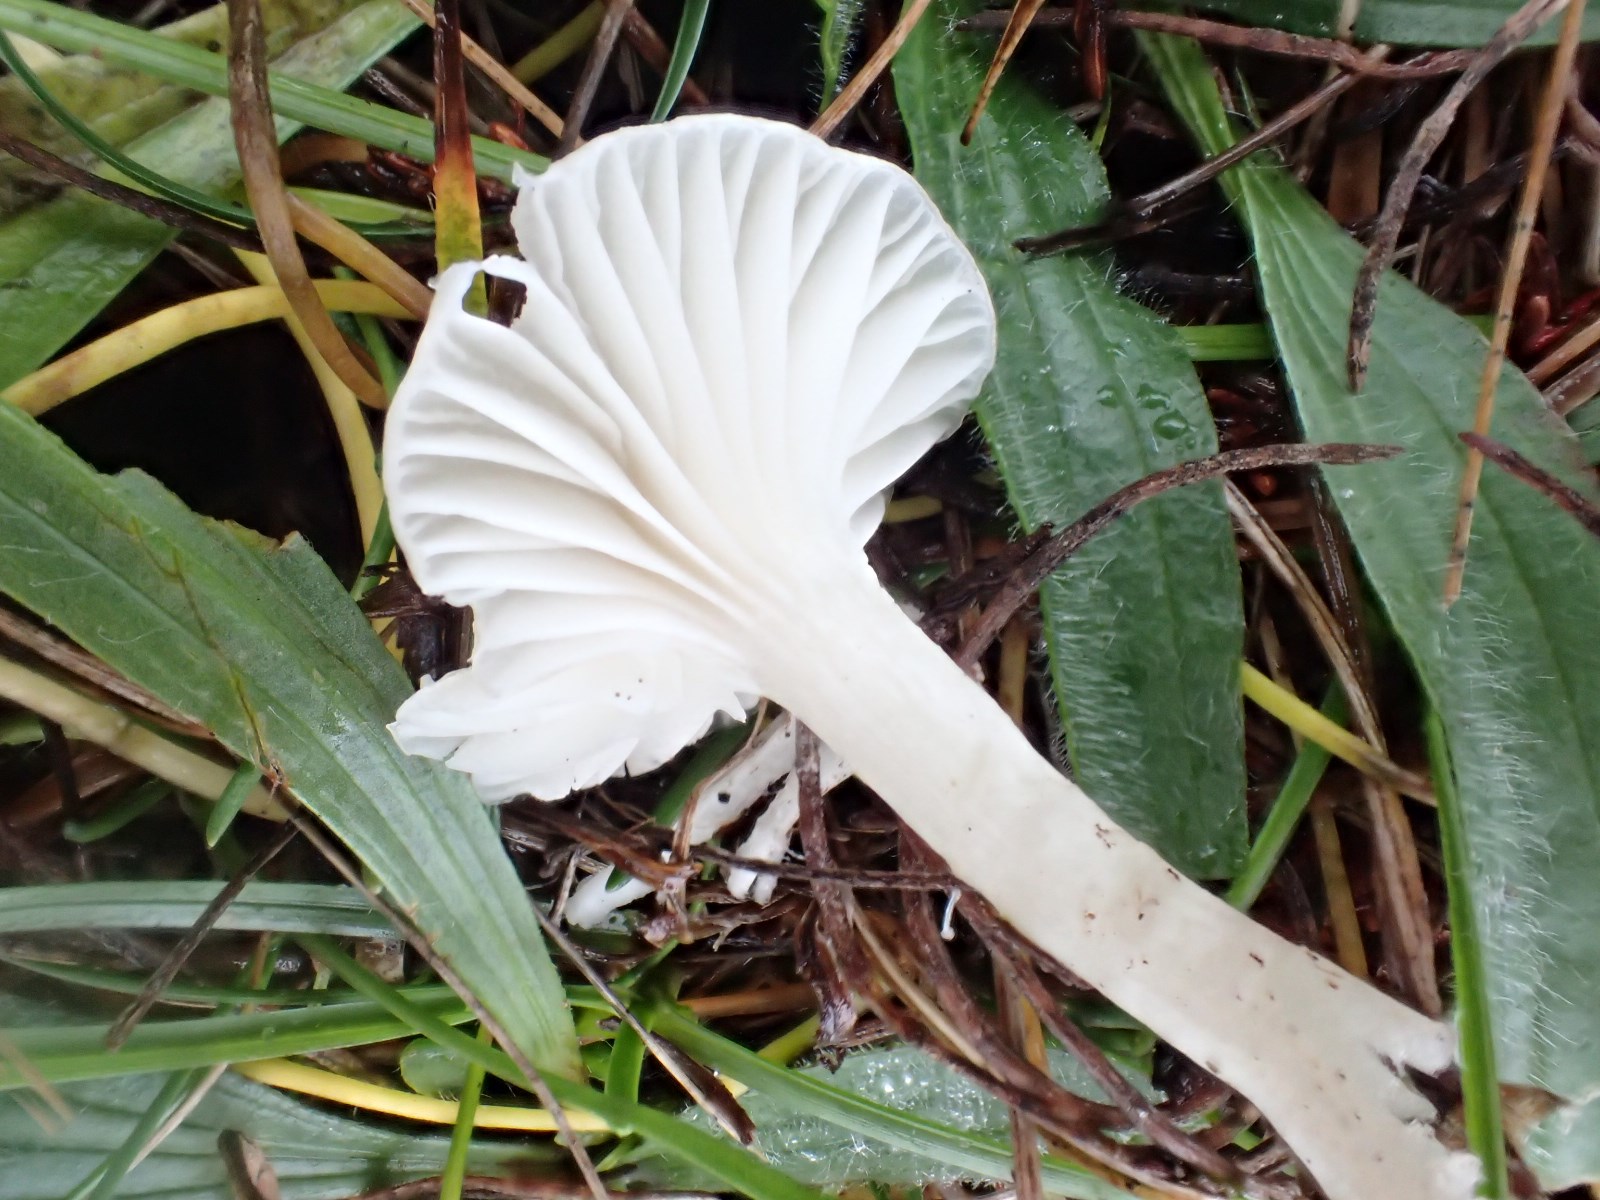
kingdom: Fungi
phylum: Basidiomycota
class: Agaricomycetes
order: Agaricales
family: Hygrophoraceae
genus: Cuphophyllus
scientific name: Cuphophyllus virgineus
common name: snehvid vokshat
